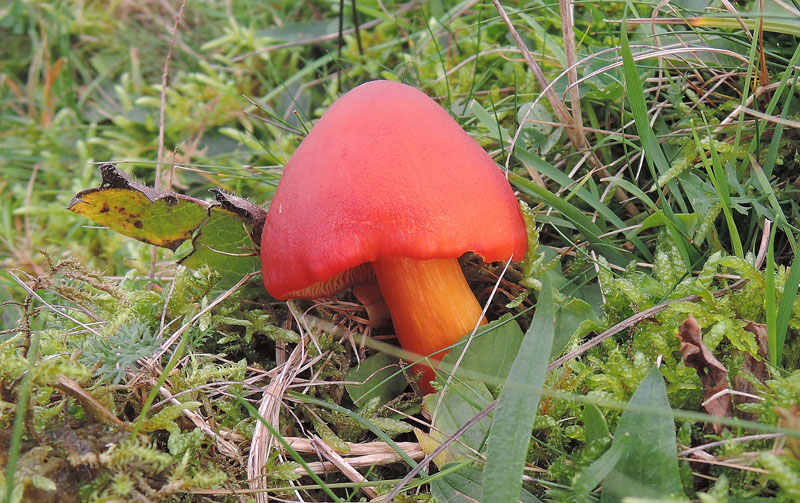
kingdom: Fungi
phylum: Basidiomycota
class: Agaricomycetes
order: Agaricales
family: Hygrophoraceae
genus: Hygrocybe
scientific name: Hygrocybe punicea
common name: skarlagen-vokshat
